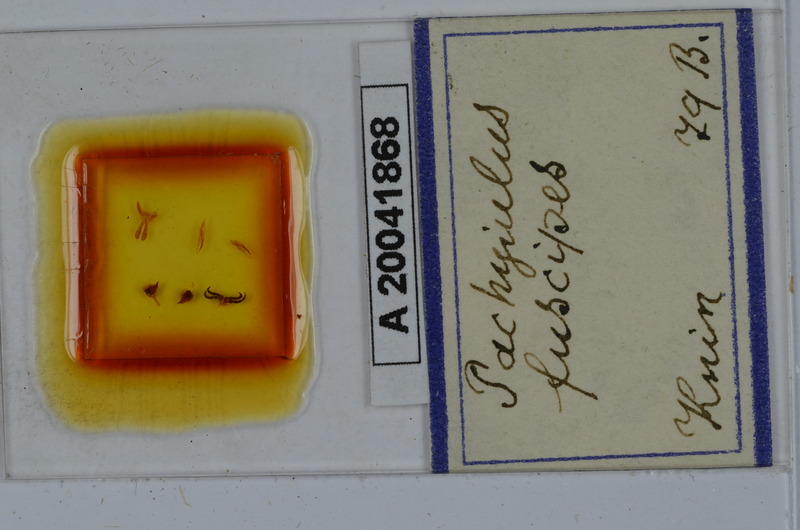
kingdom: Animalia
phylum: Arthropoda
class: Diplopoda
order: Julida
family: Julidae
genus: Acanthoiulus
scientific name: Acanthoiulus fuscipes
